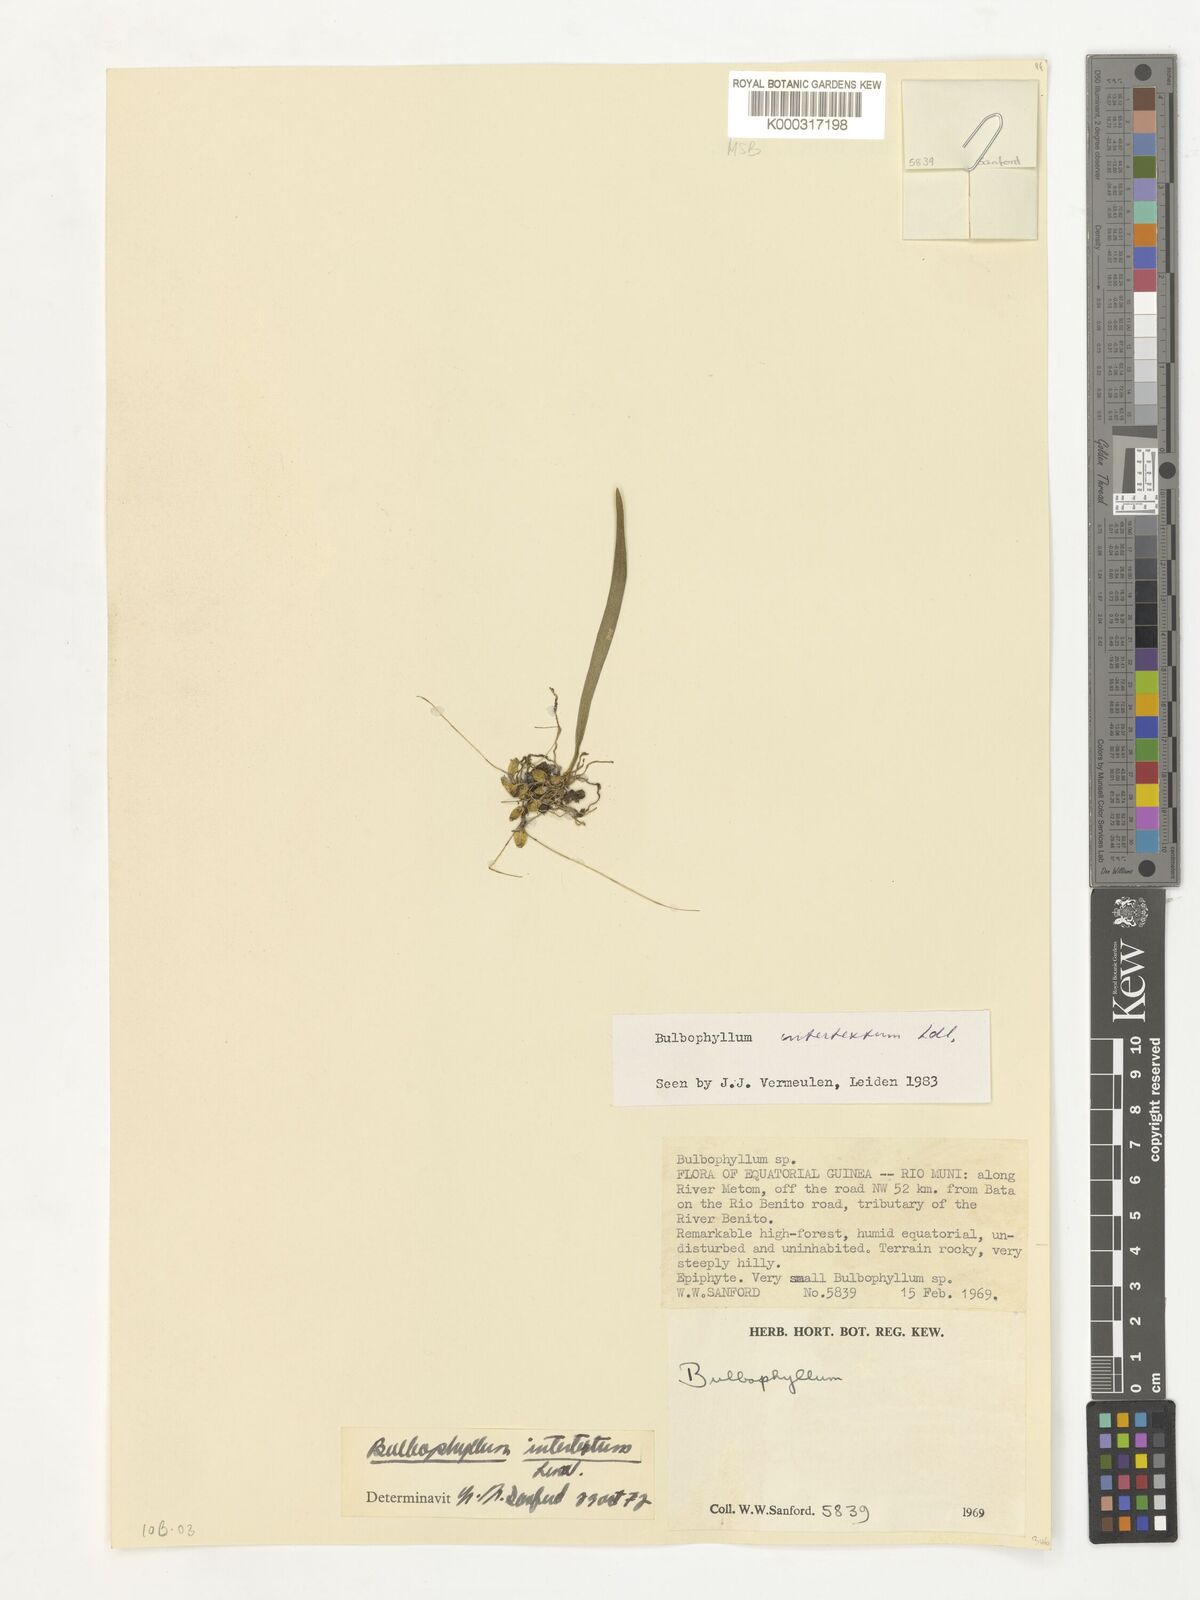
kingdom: Plantae
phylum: Tracheophyta
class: Liliopsida
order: Asparagales
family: Orchidaceae
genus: Bulbophyllum
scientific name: Bulbophyllum intertextum
